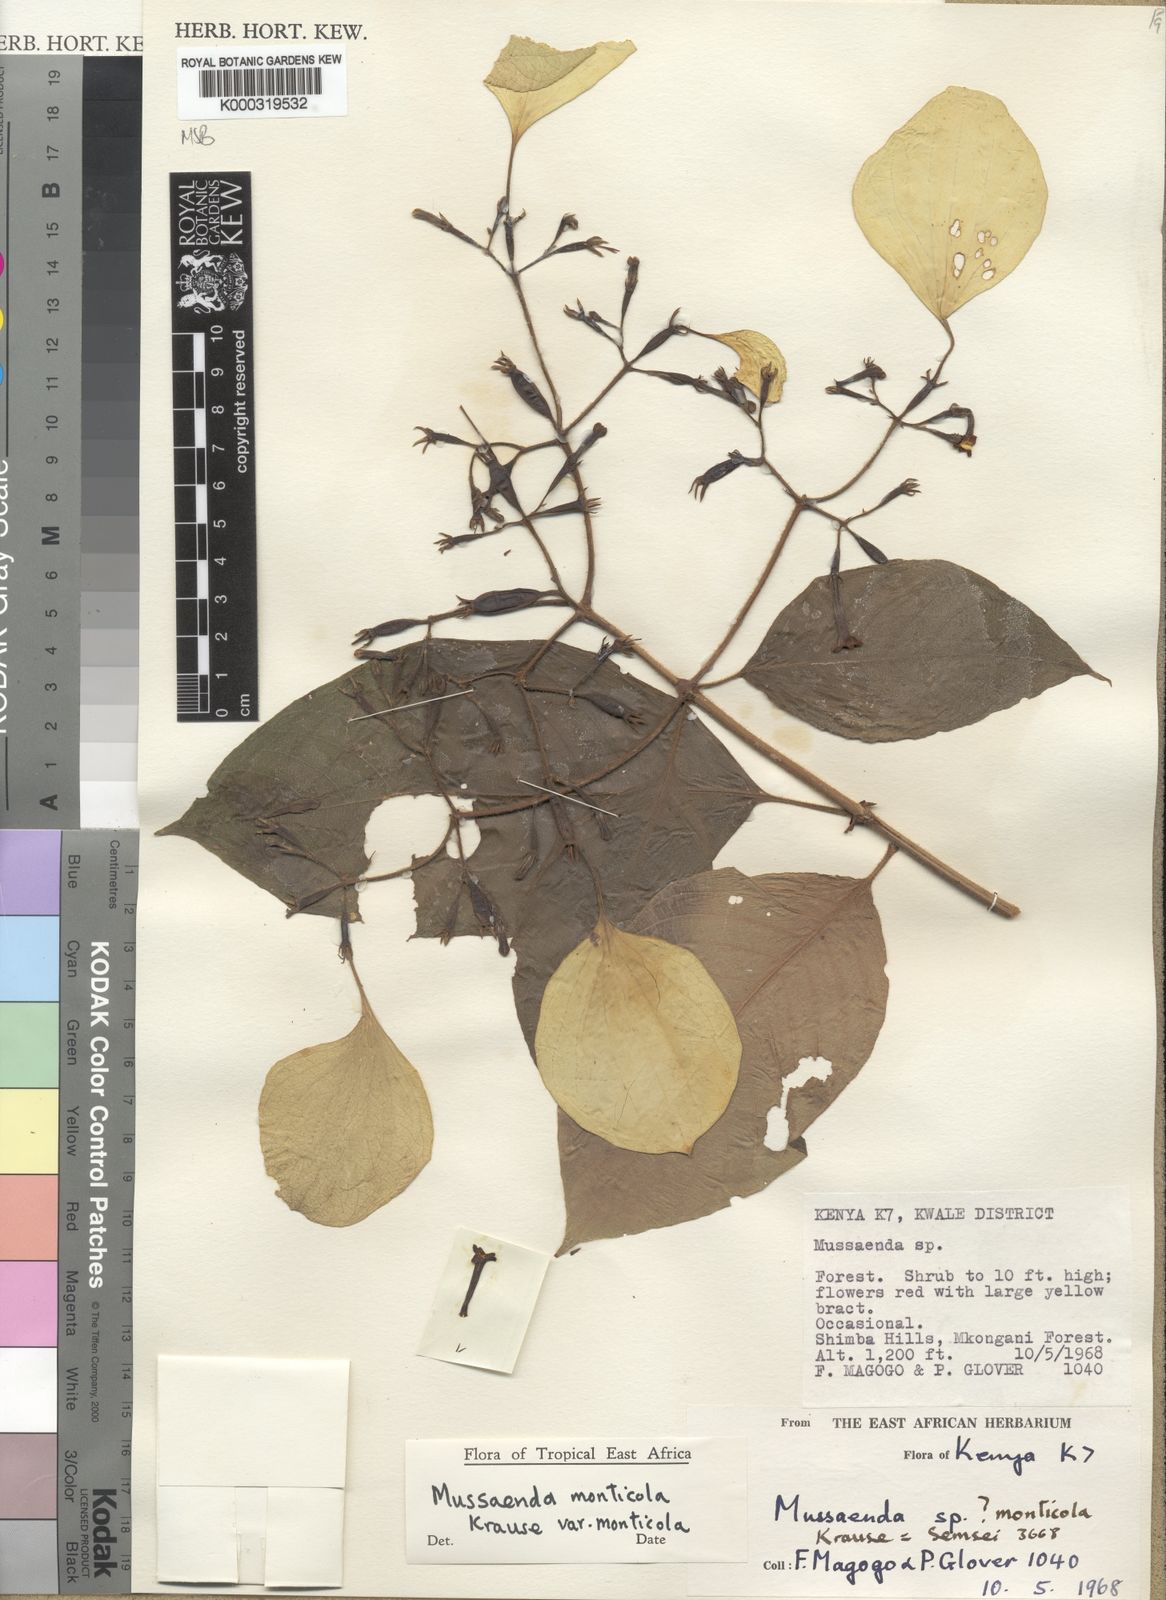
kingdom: Plantae
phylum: Tracheophyta
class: Magnoliopsida
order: Gentianales
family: Rubiaceae
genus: Mussaenda
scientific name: Mussaenda monticola
